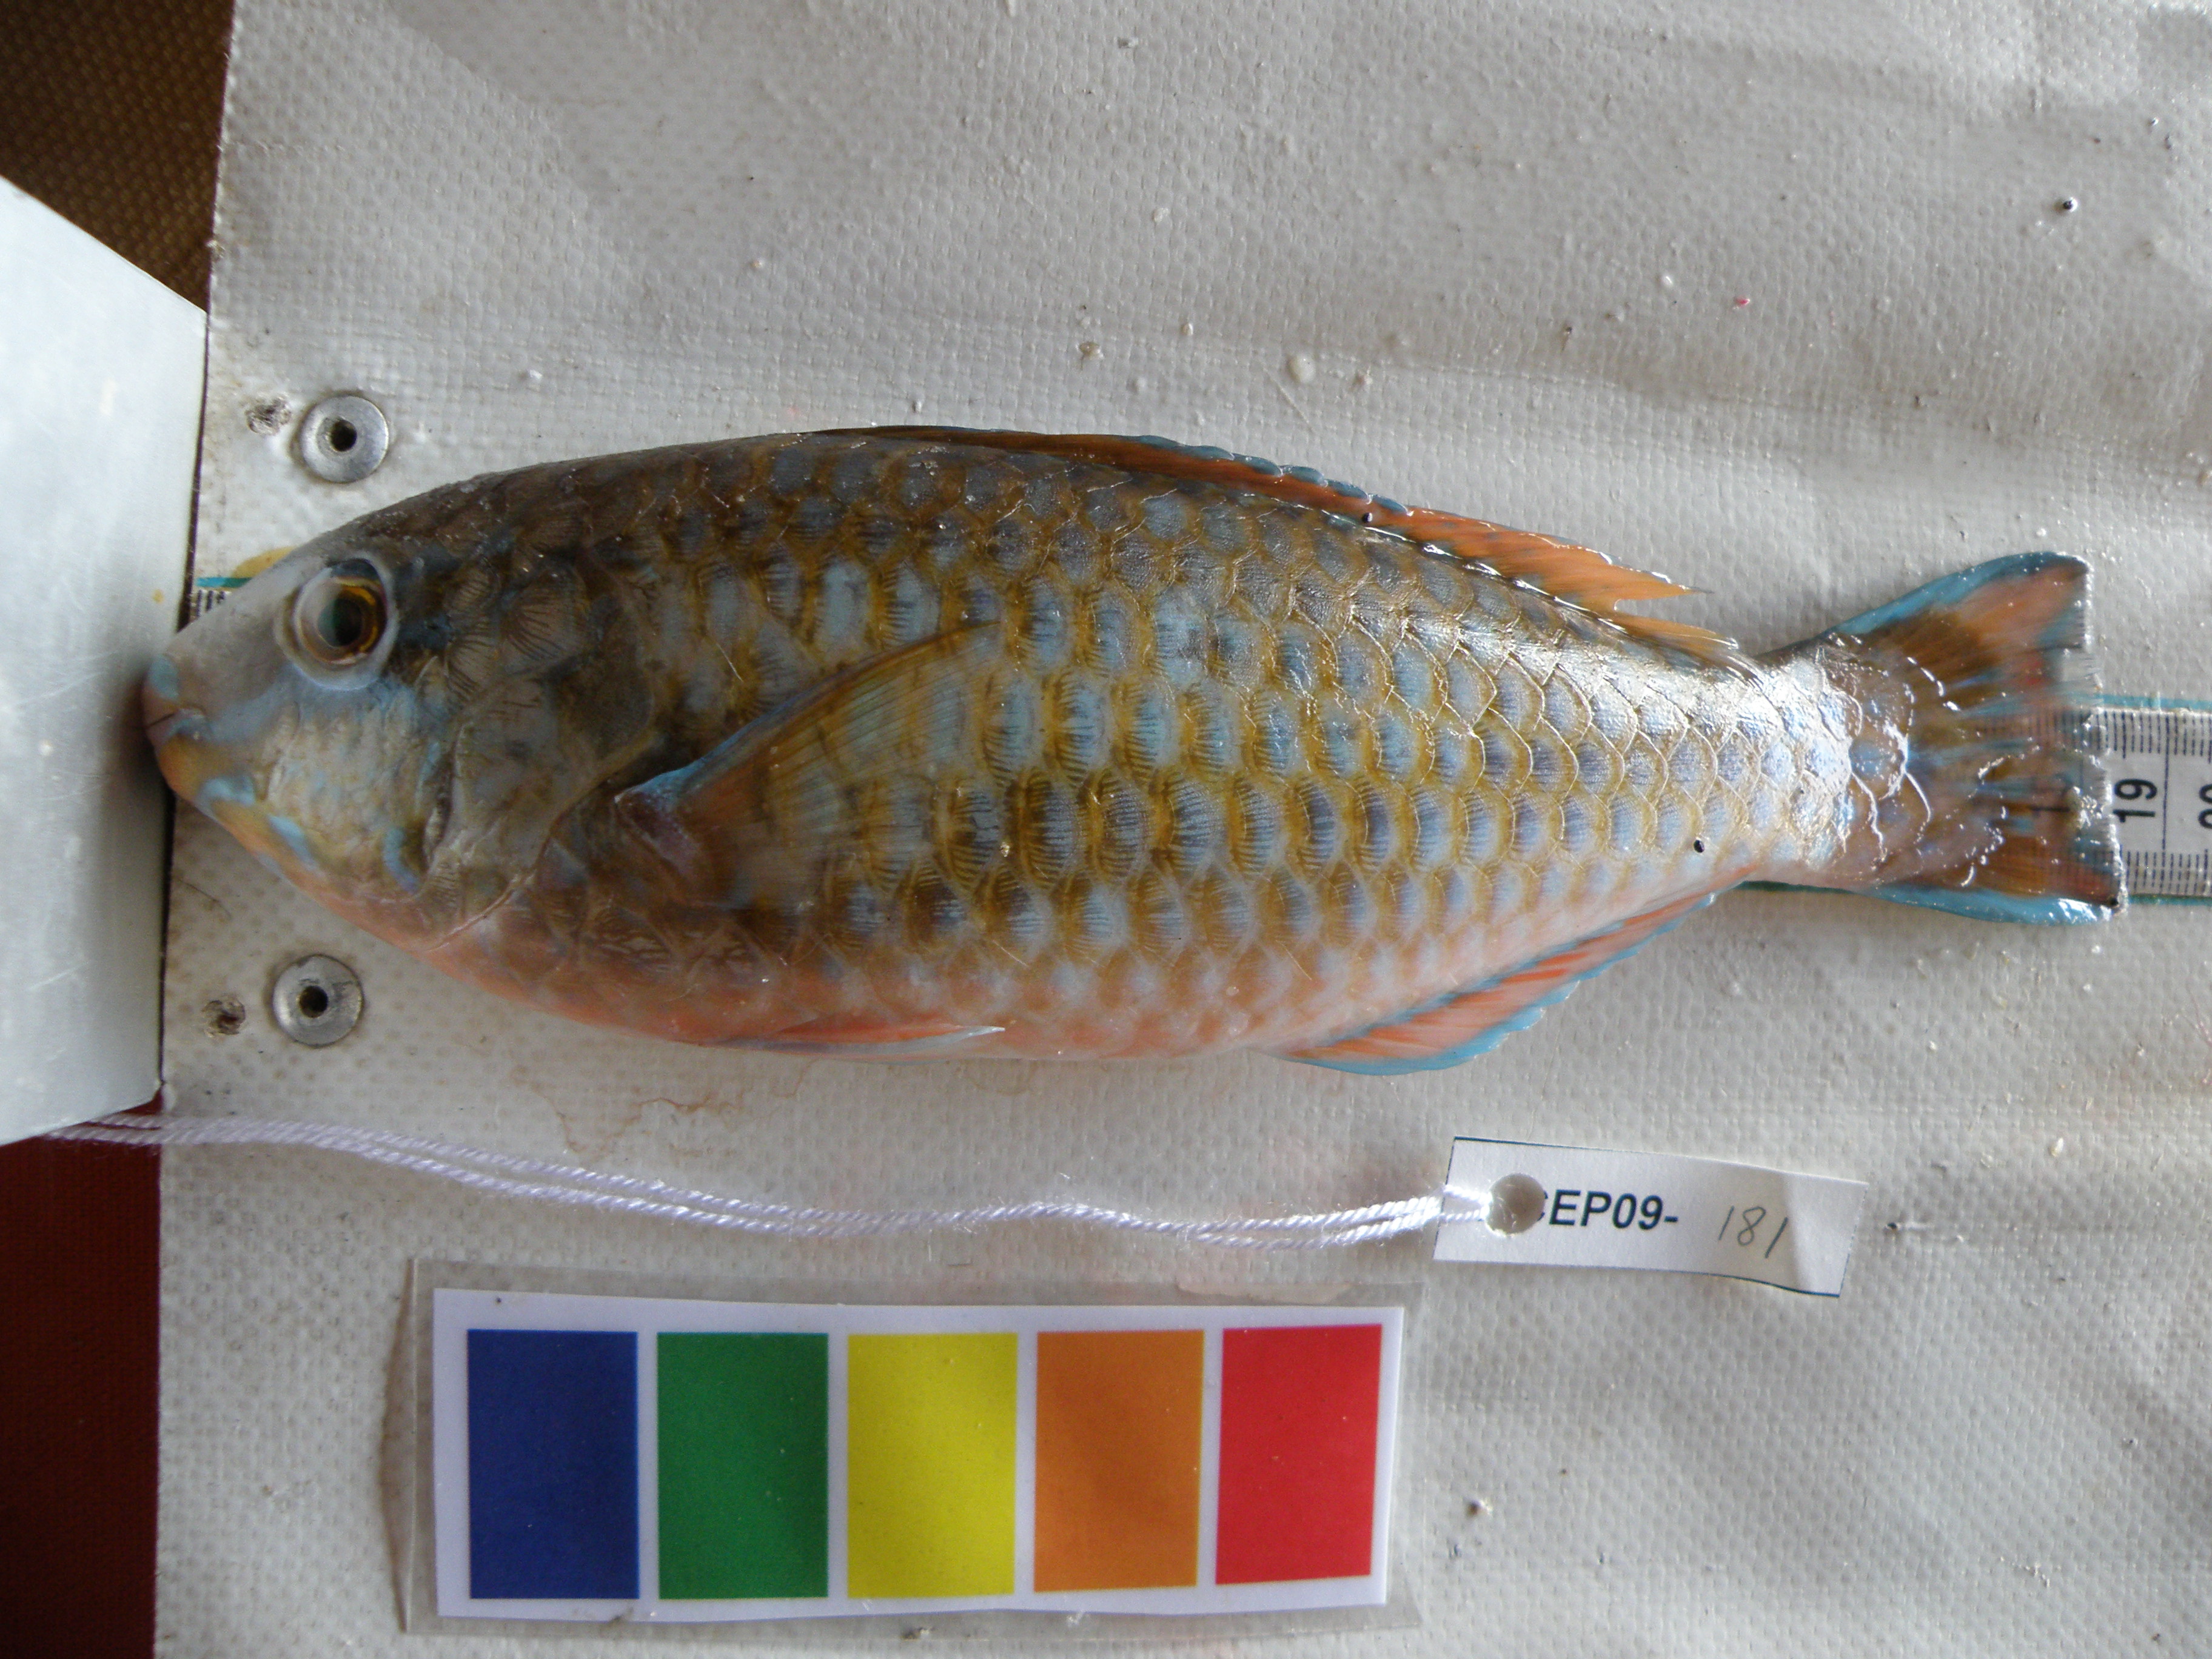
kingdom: Animalia
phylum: Chordata
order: Perciformes
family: Scaridae
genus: Scarus
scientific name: Scarus tricolor
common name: Tricolour parrotfish
